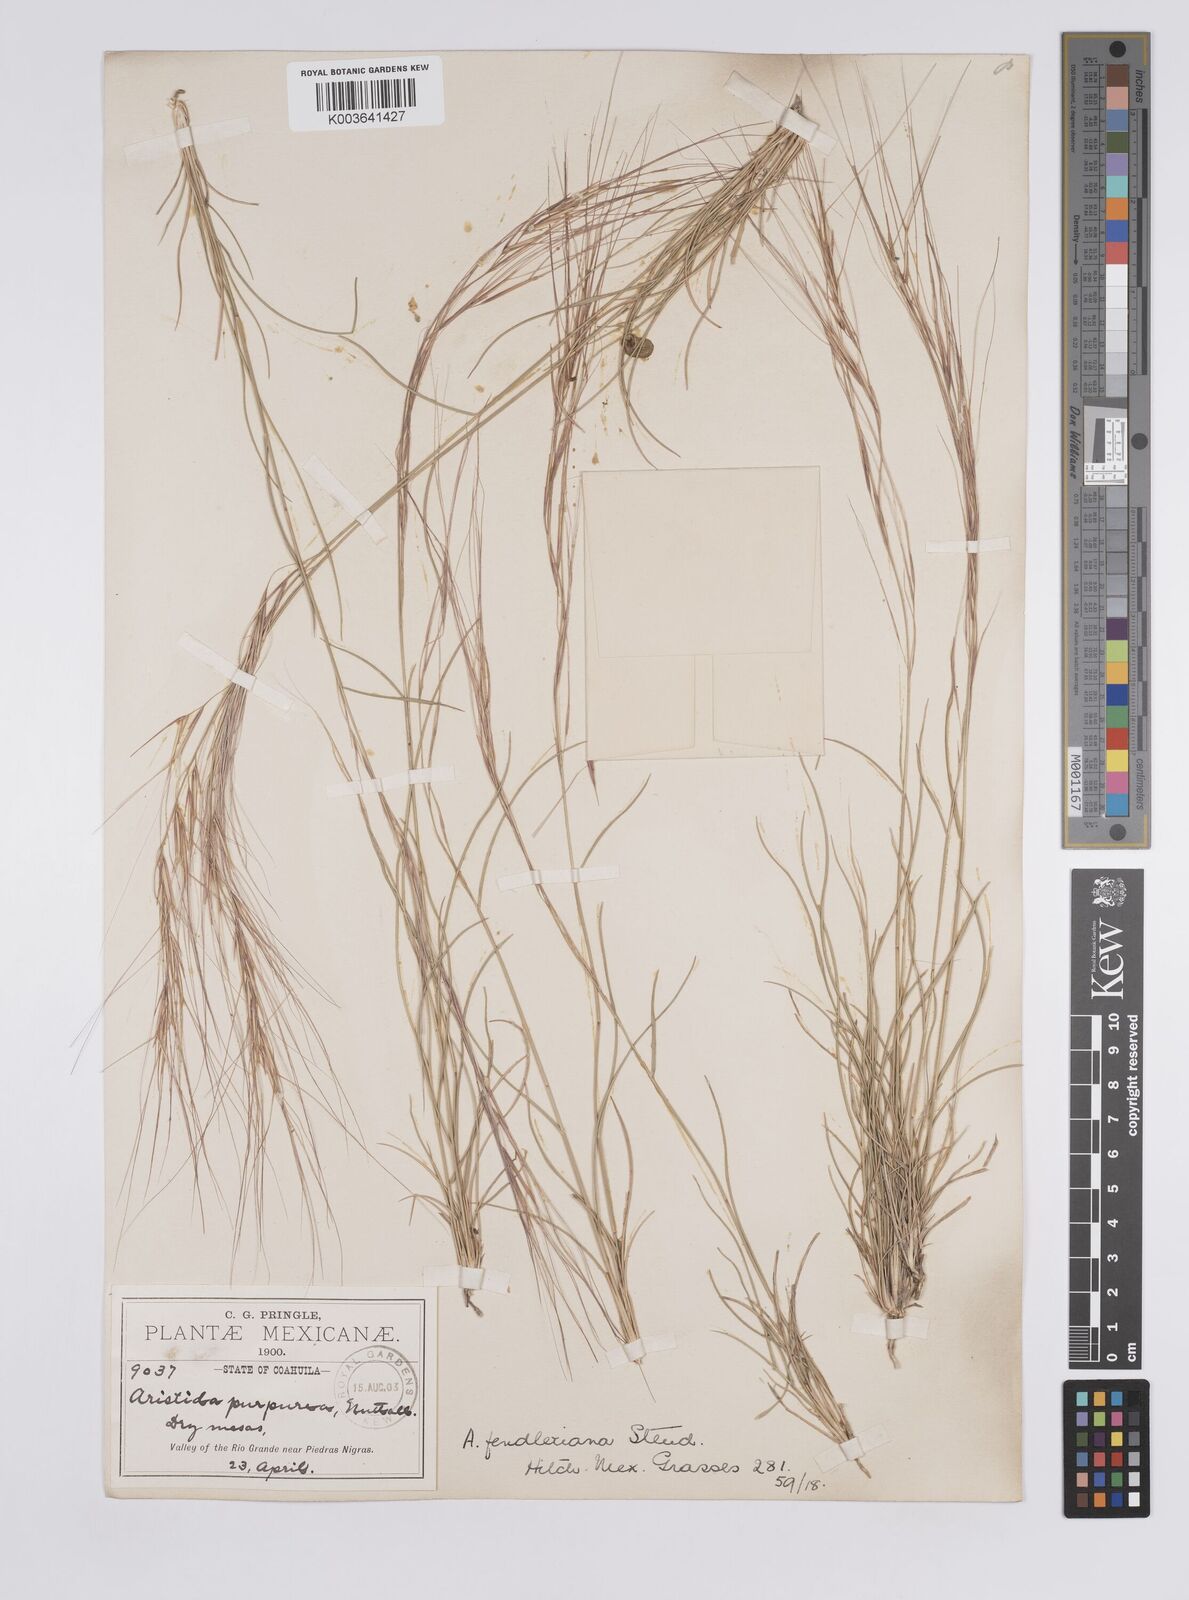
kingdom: Plantae
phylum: Tracheophyta
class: Liliopsida
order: Poales
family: Poaceae
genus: Aristida
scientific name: Aristida purpurea
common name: Purple threeawn
